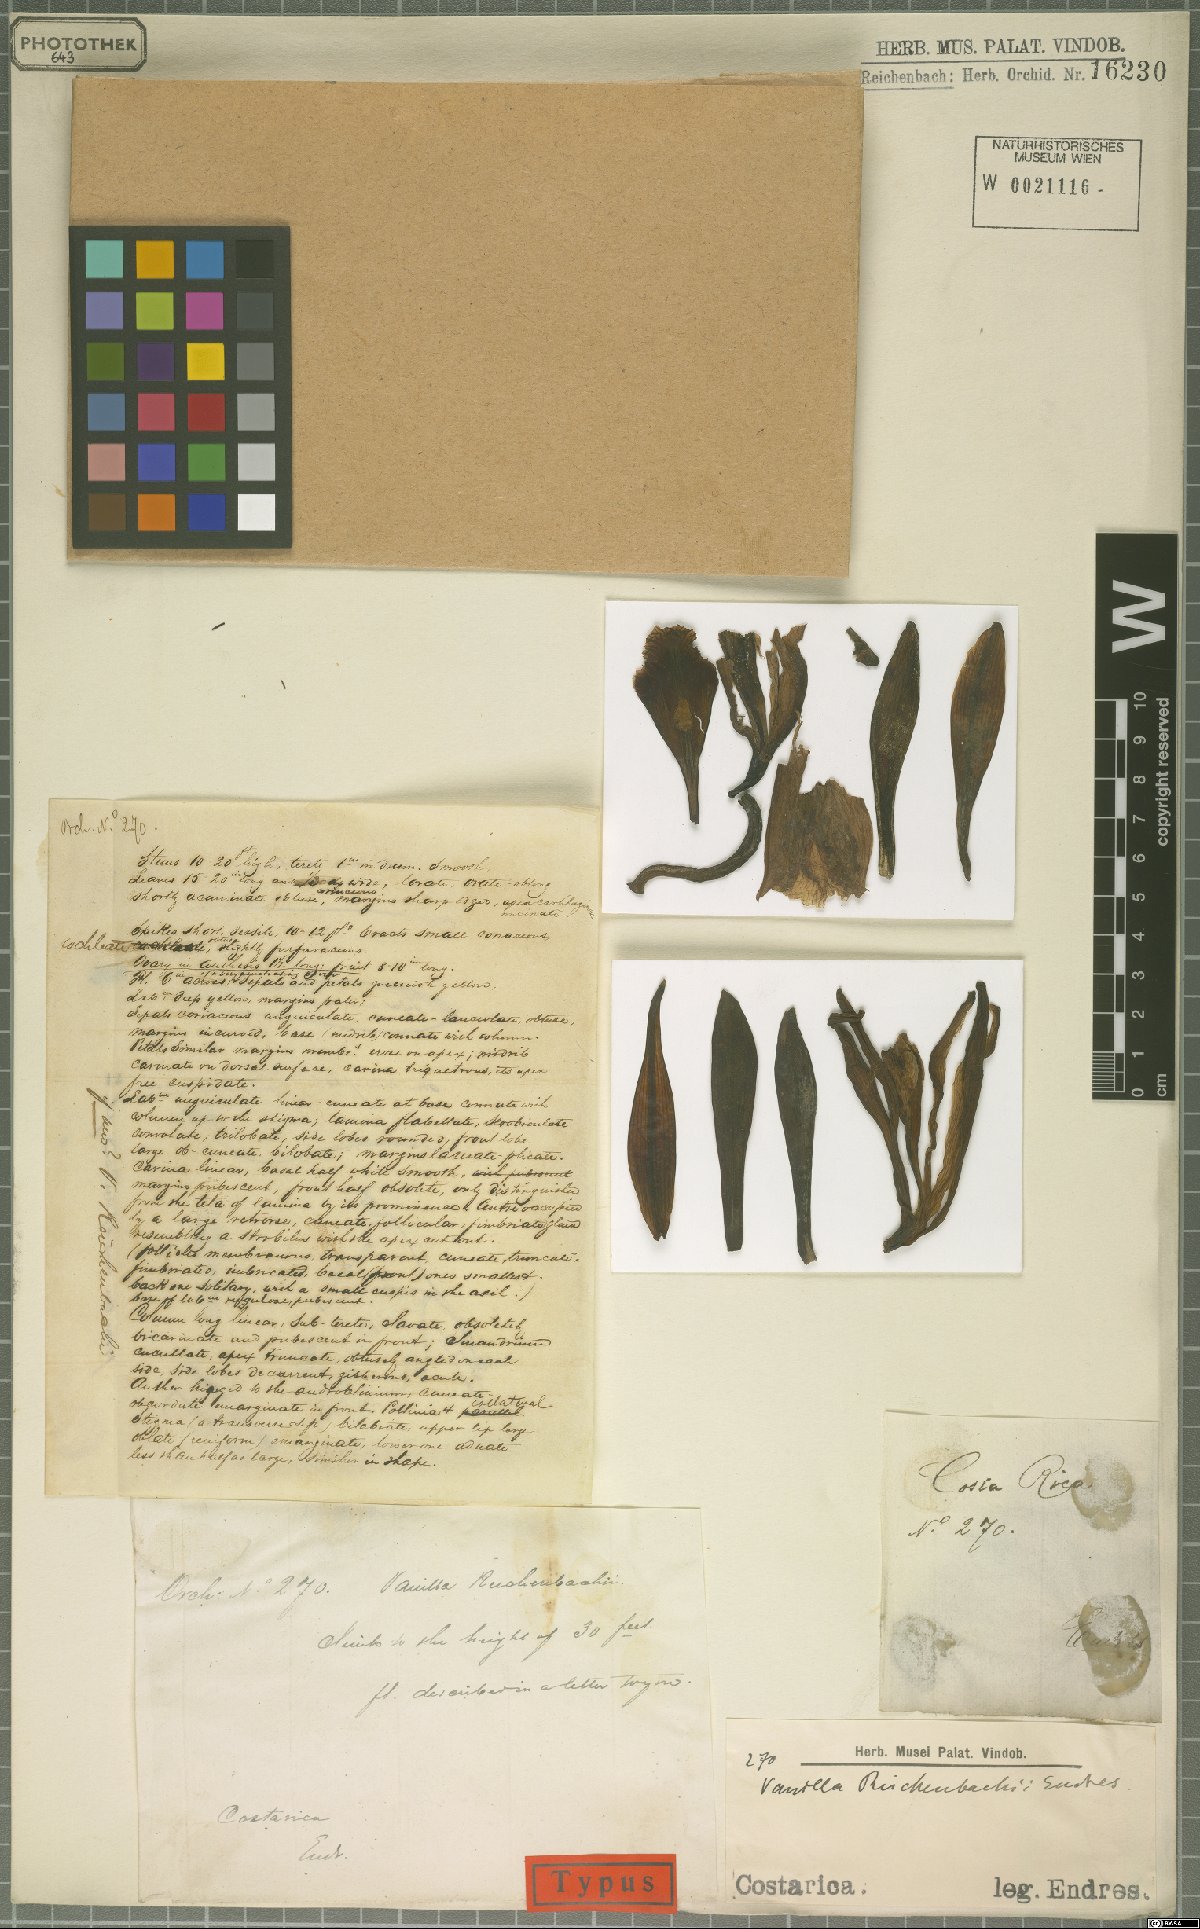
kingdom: Plantae
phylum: Tracheophyta
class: Liliopsida
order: Asparagales
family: Orchidaceae
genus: Vanilla
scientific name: Vanilla pompona
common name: West indian vanilla
